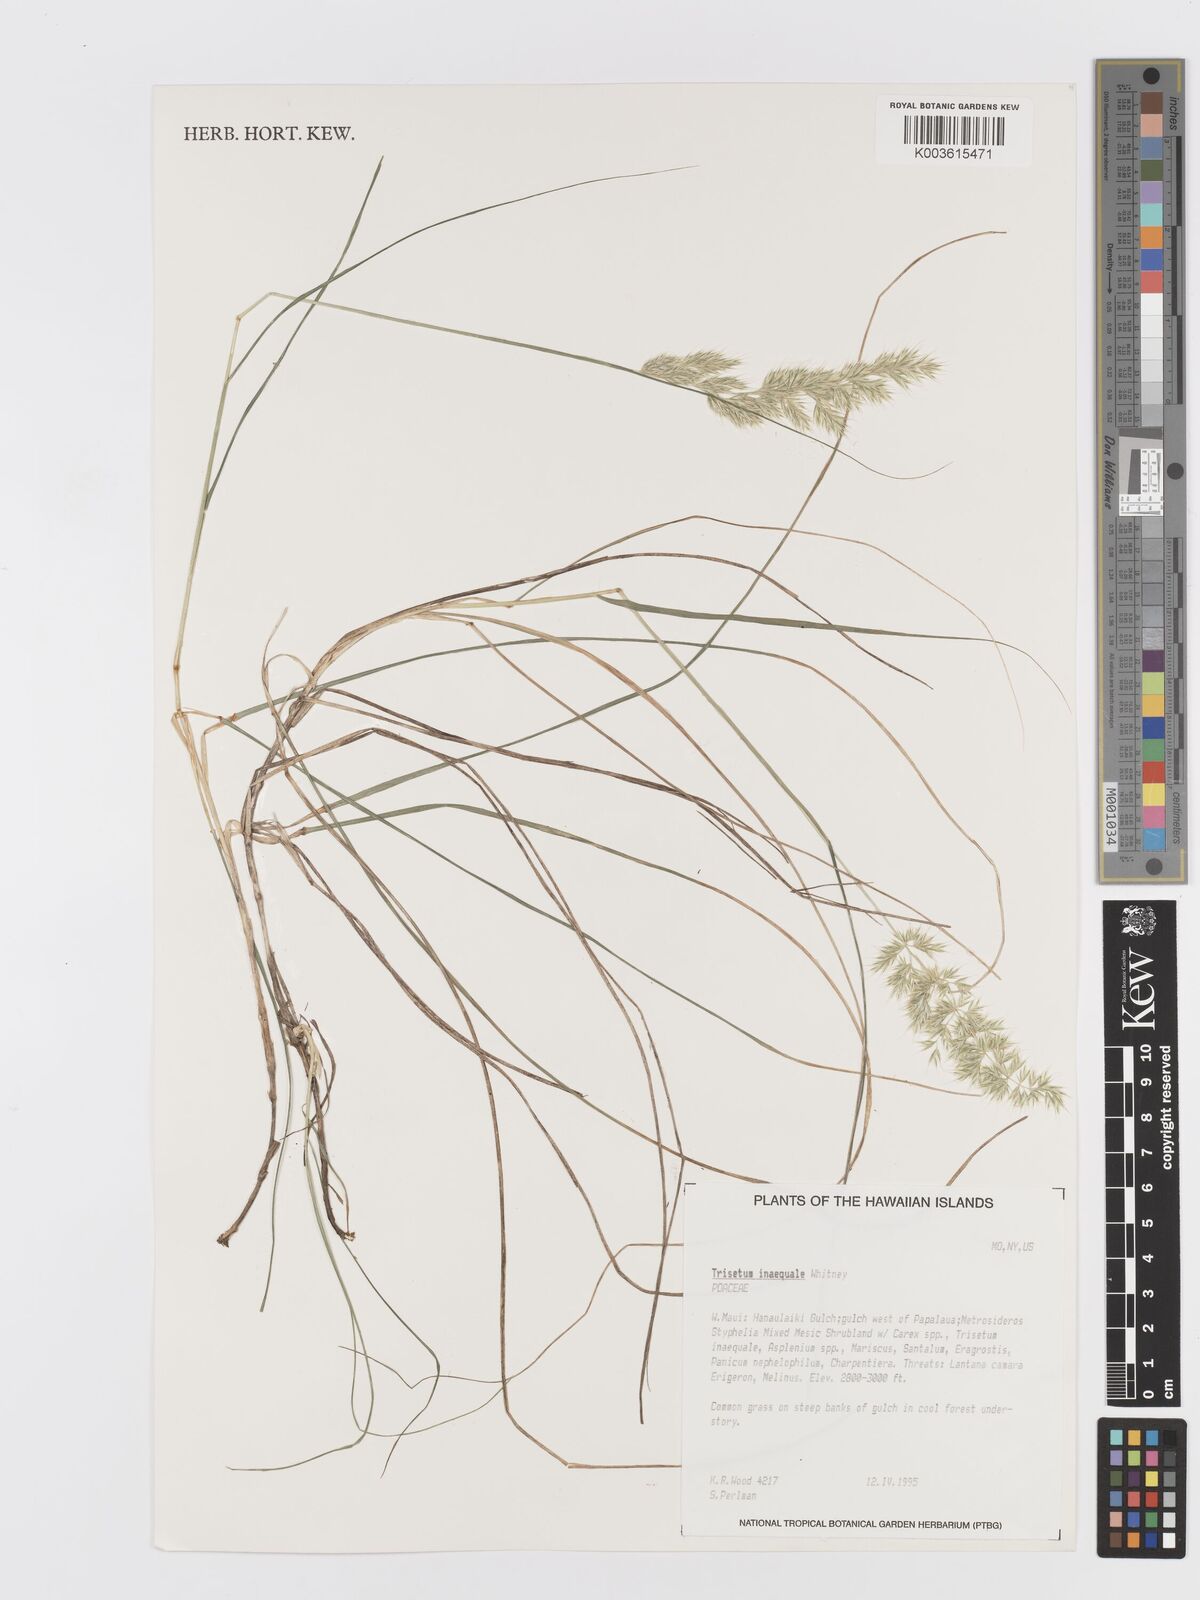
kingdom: Plantae
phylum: Tracheophyta
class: Liliopsida
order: Poales
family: Poaceae
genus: Koeleria
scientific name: Koeleria inaequalis
